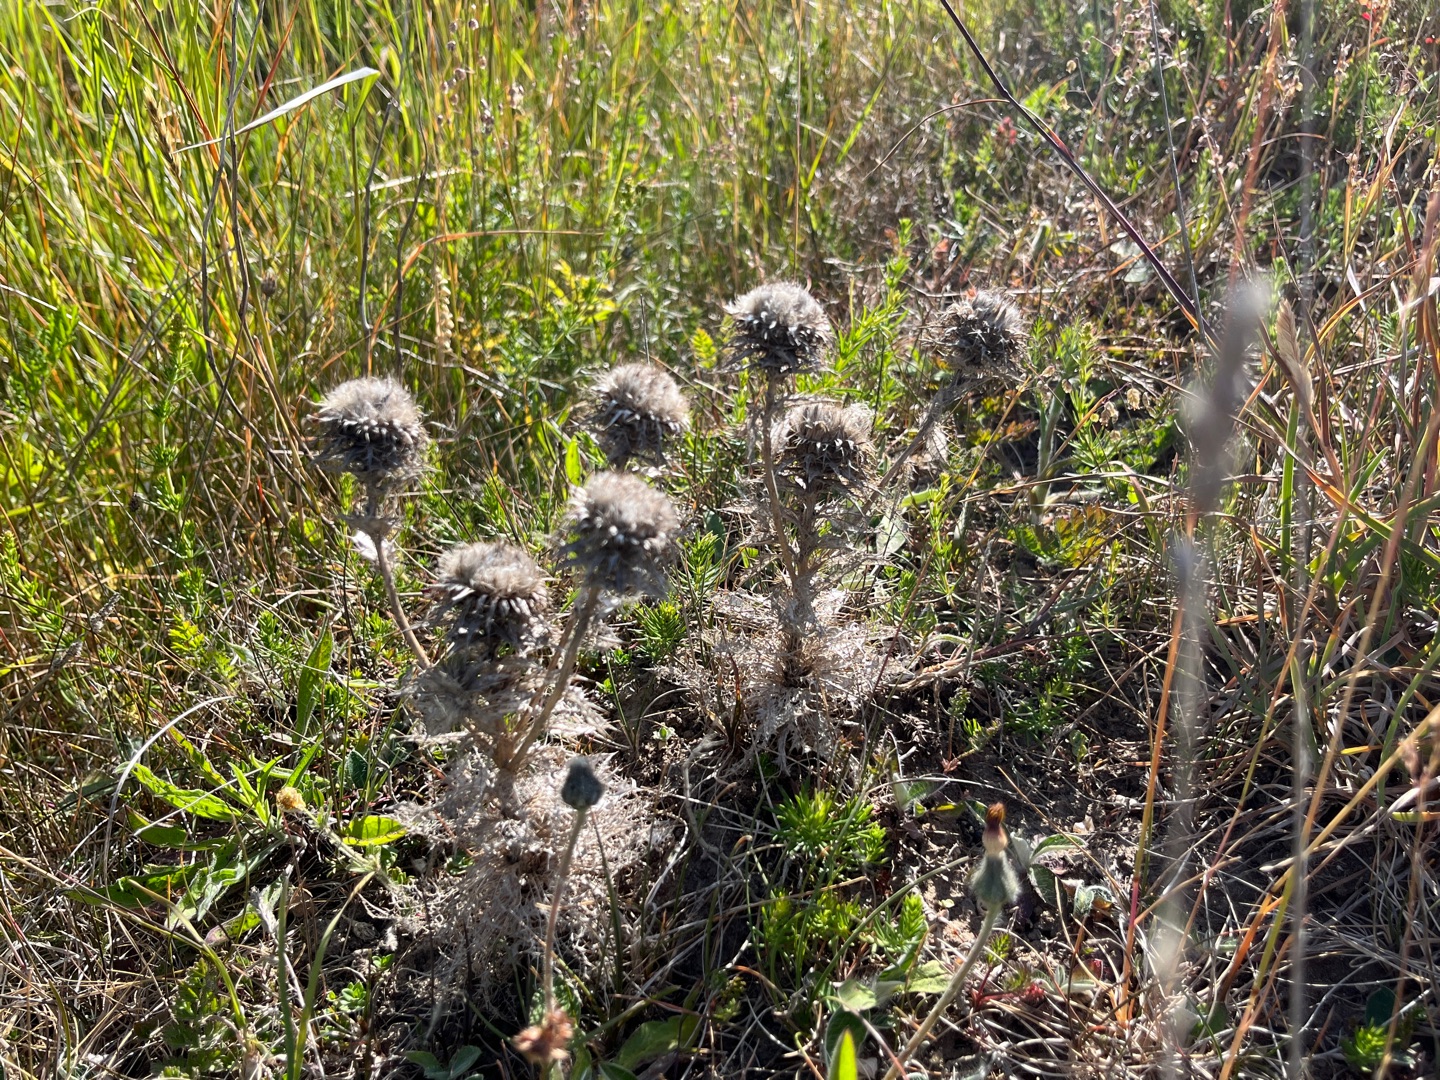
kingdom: Plantae
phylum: Tracheophyta
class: Magnoliopsida
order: Asterales
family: Asteraceae
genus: Carlina
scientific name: Carlina vulgaris
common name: Bakketidsel
